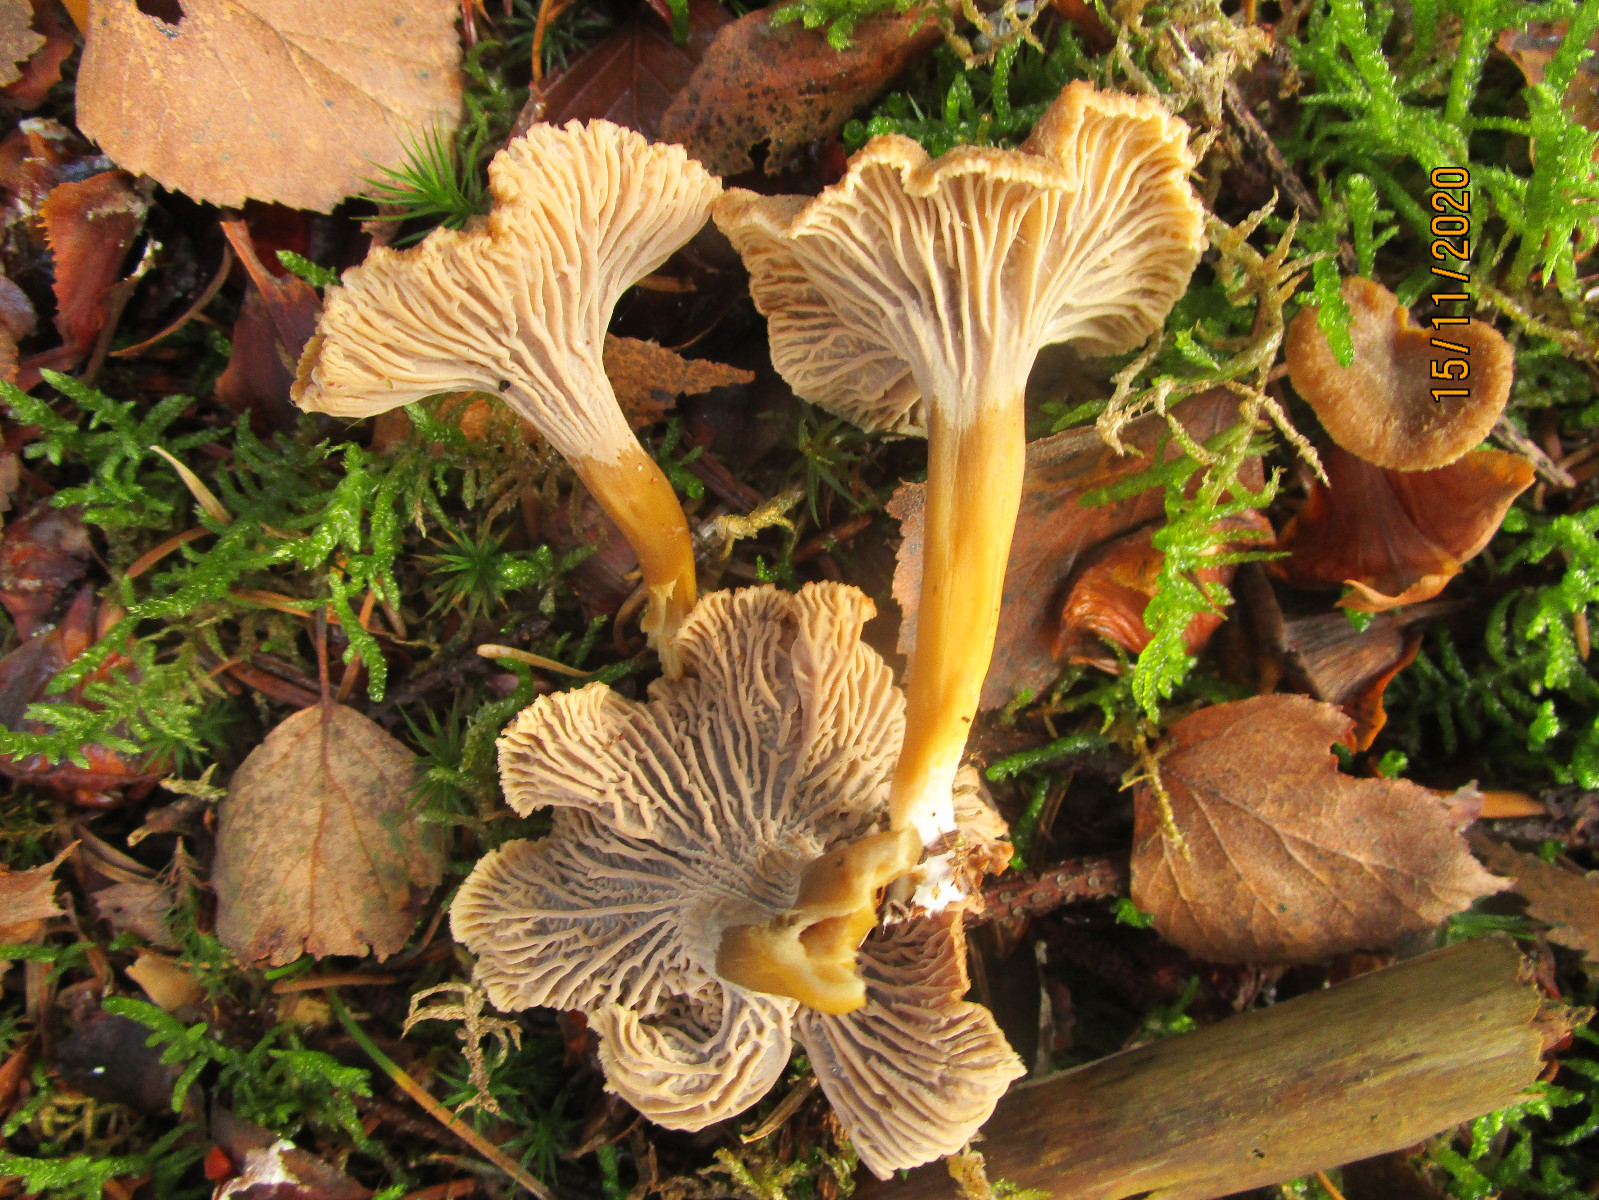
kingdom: Fungi
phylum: Basidiomycota
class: Agaricomycetes
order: Cantharellales
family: Hydnaceae
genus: Craterellus
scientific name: Craterellus tubaeformis
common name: tragt-kantarel
